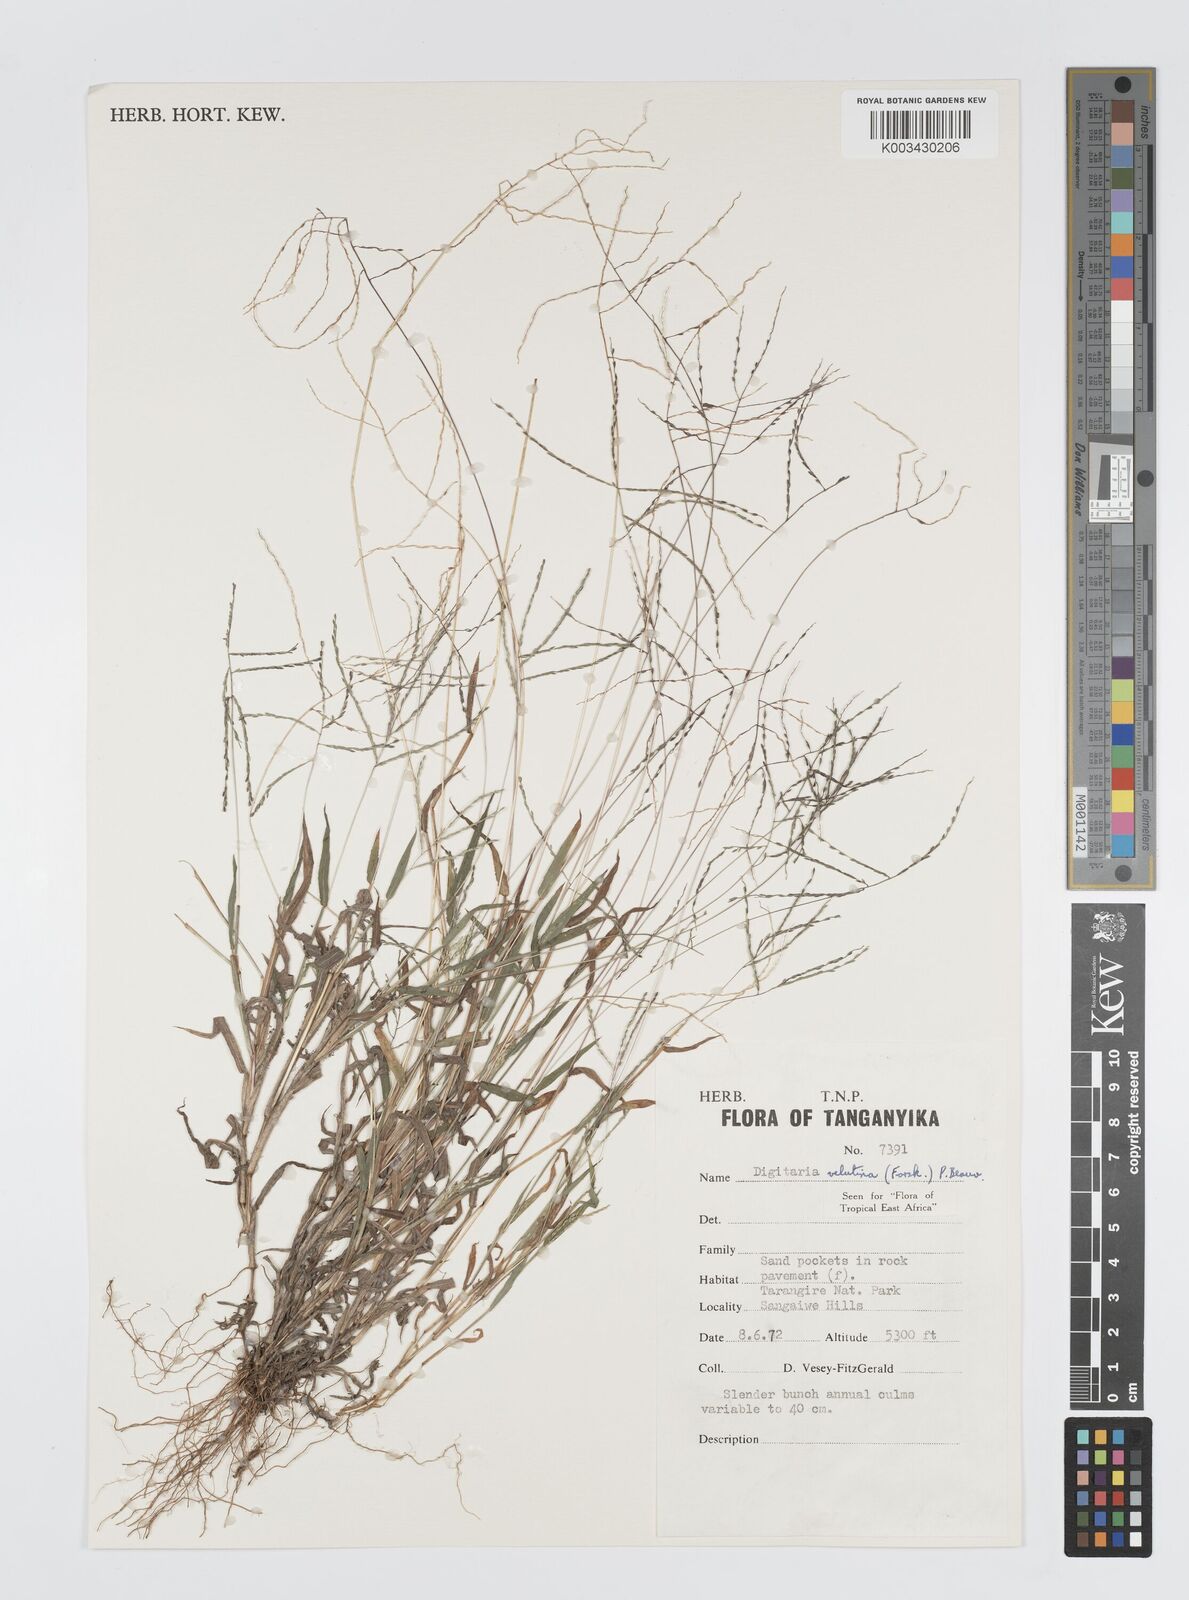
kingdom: Plantae
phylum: Tracheophyta
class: Liliopsida
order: Poales
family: Poaceae
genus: Digitaria
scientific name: Digitaria velutina
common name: Long-plume finger grass
